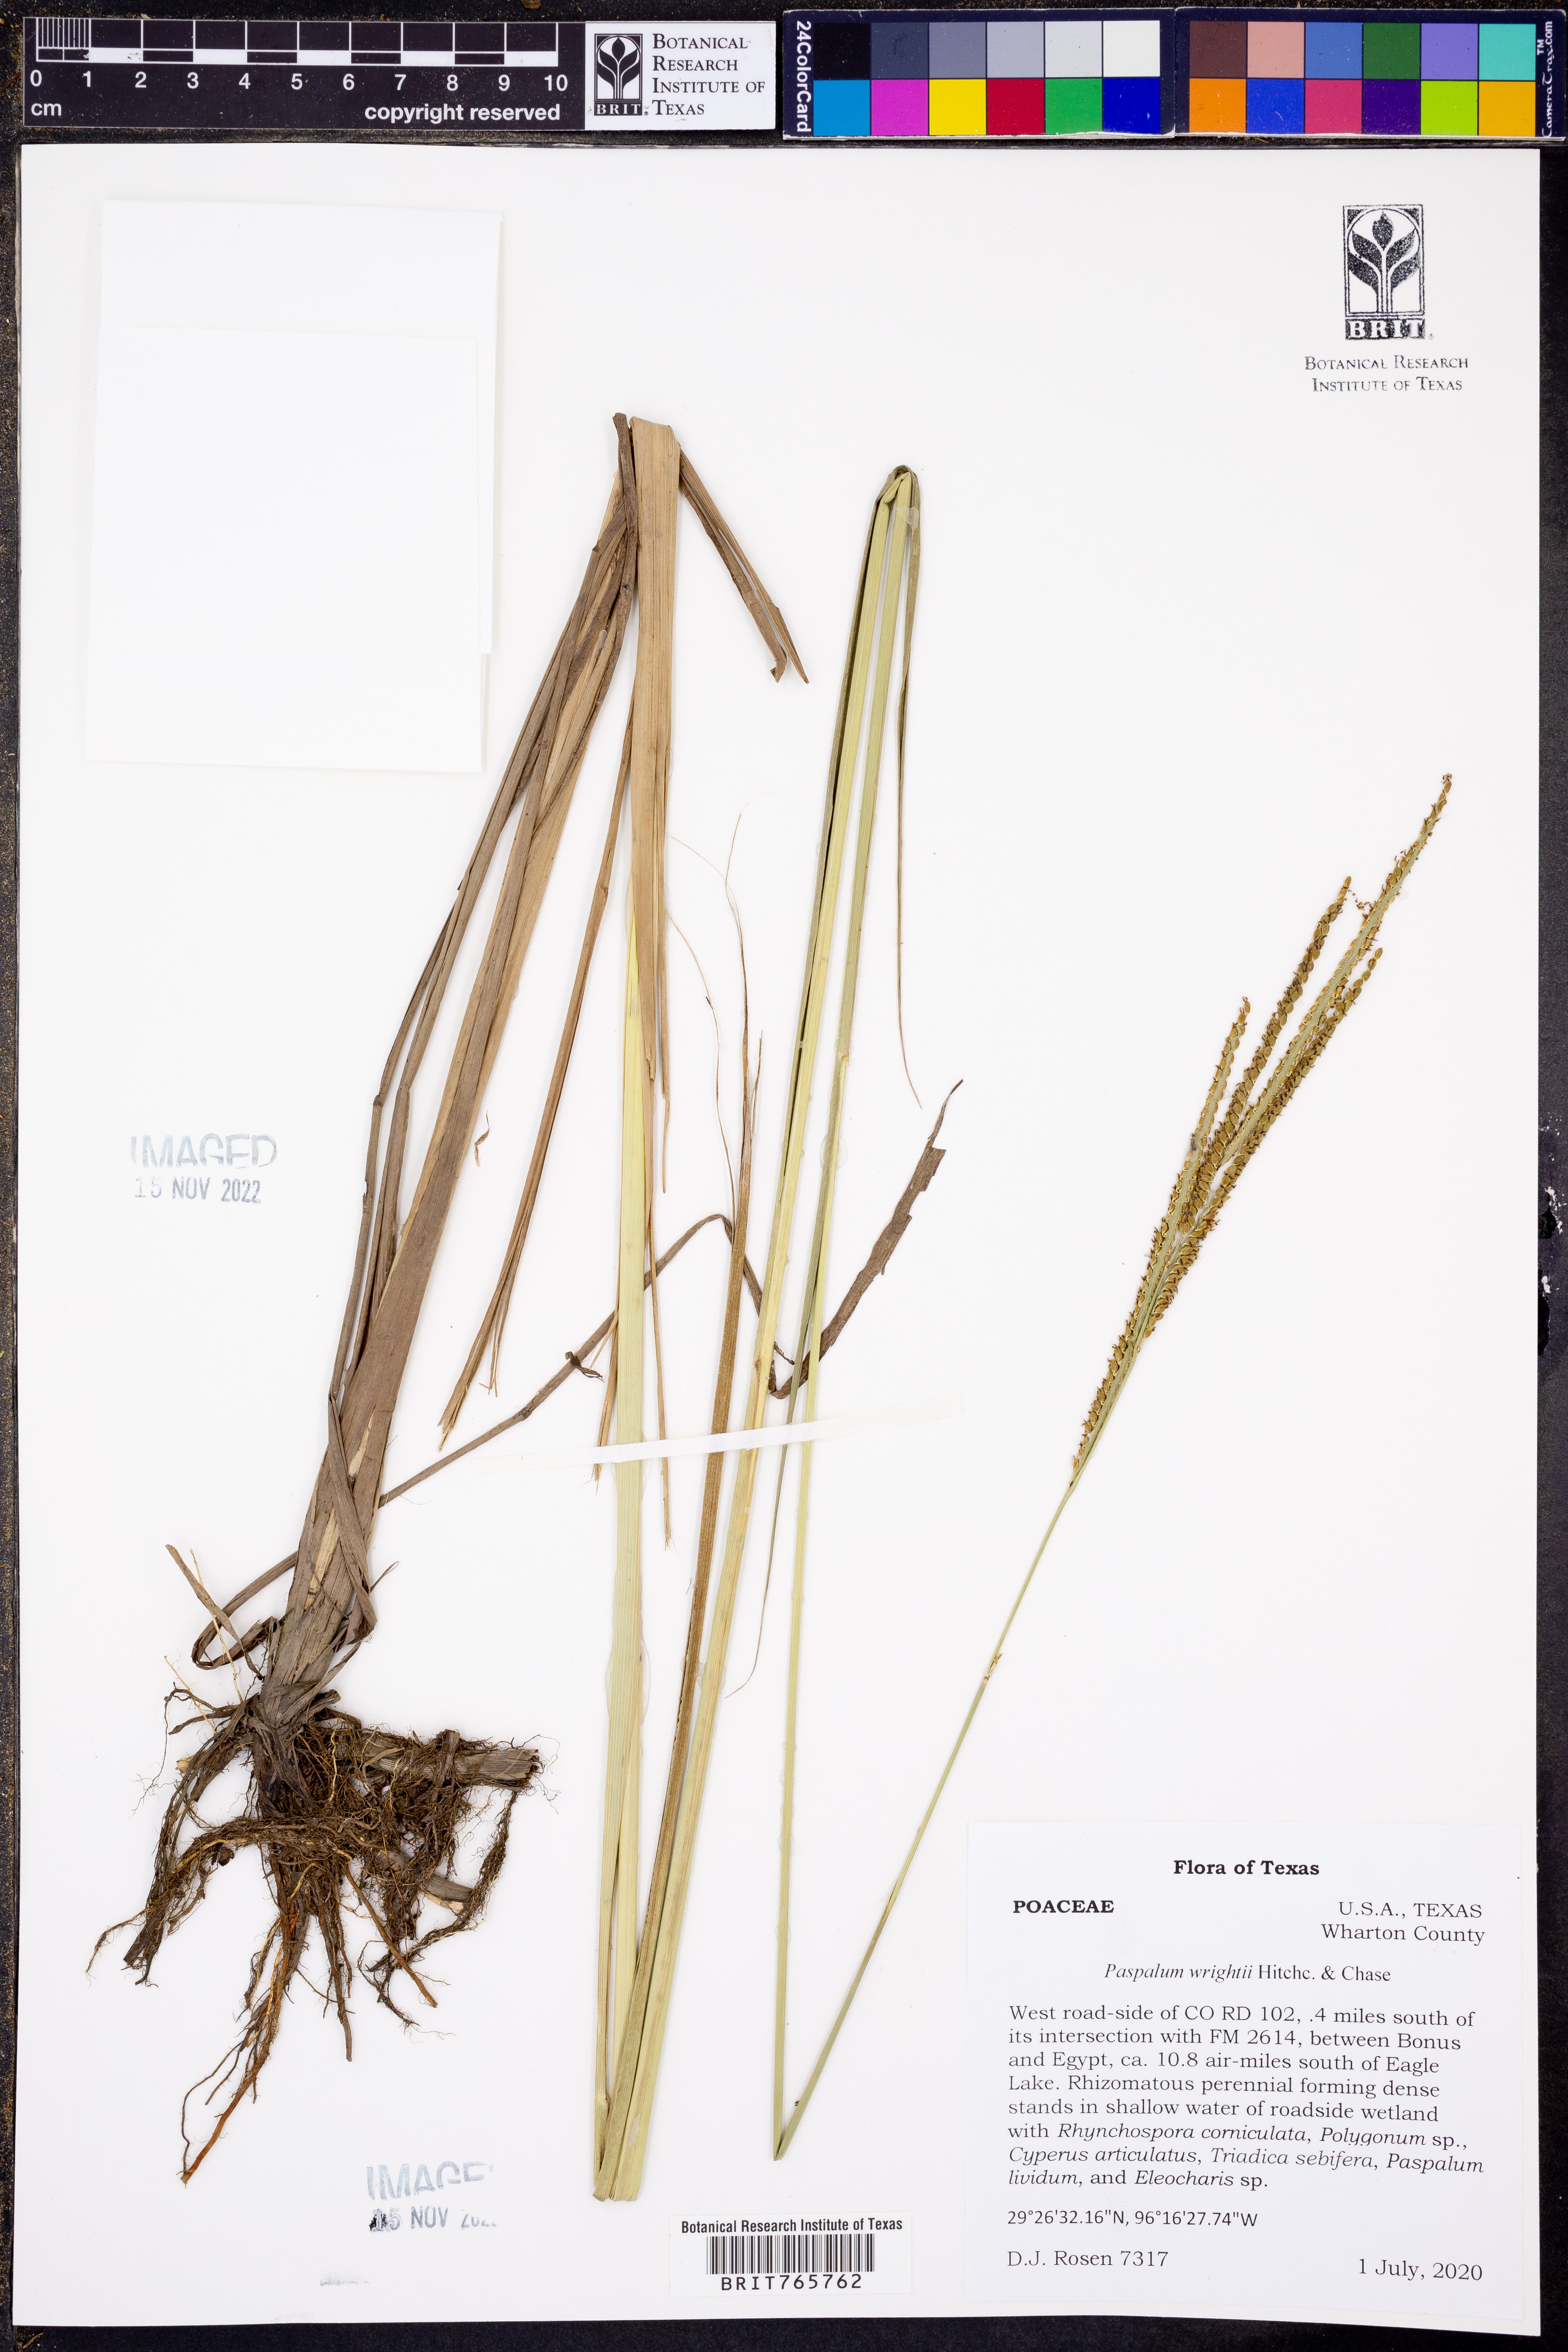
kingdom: Plantae
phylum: Tracheophyta
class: Liliopsida
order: Poales
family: Poaceae
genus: Paspalum
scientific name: Paspalum wrightii
